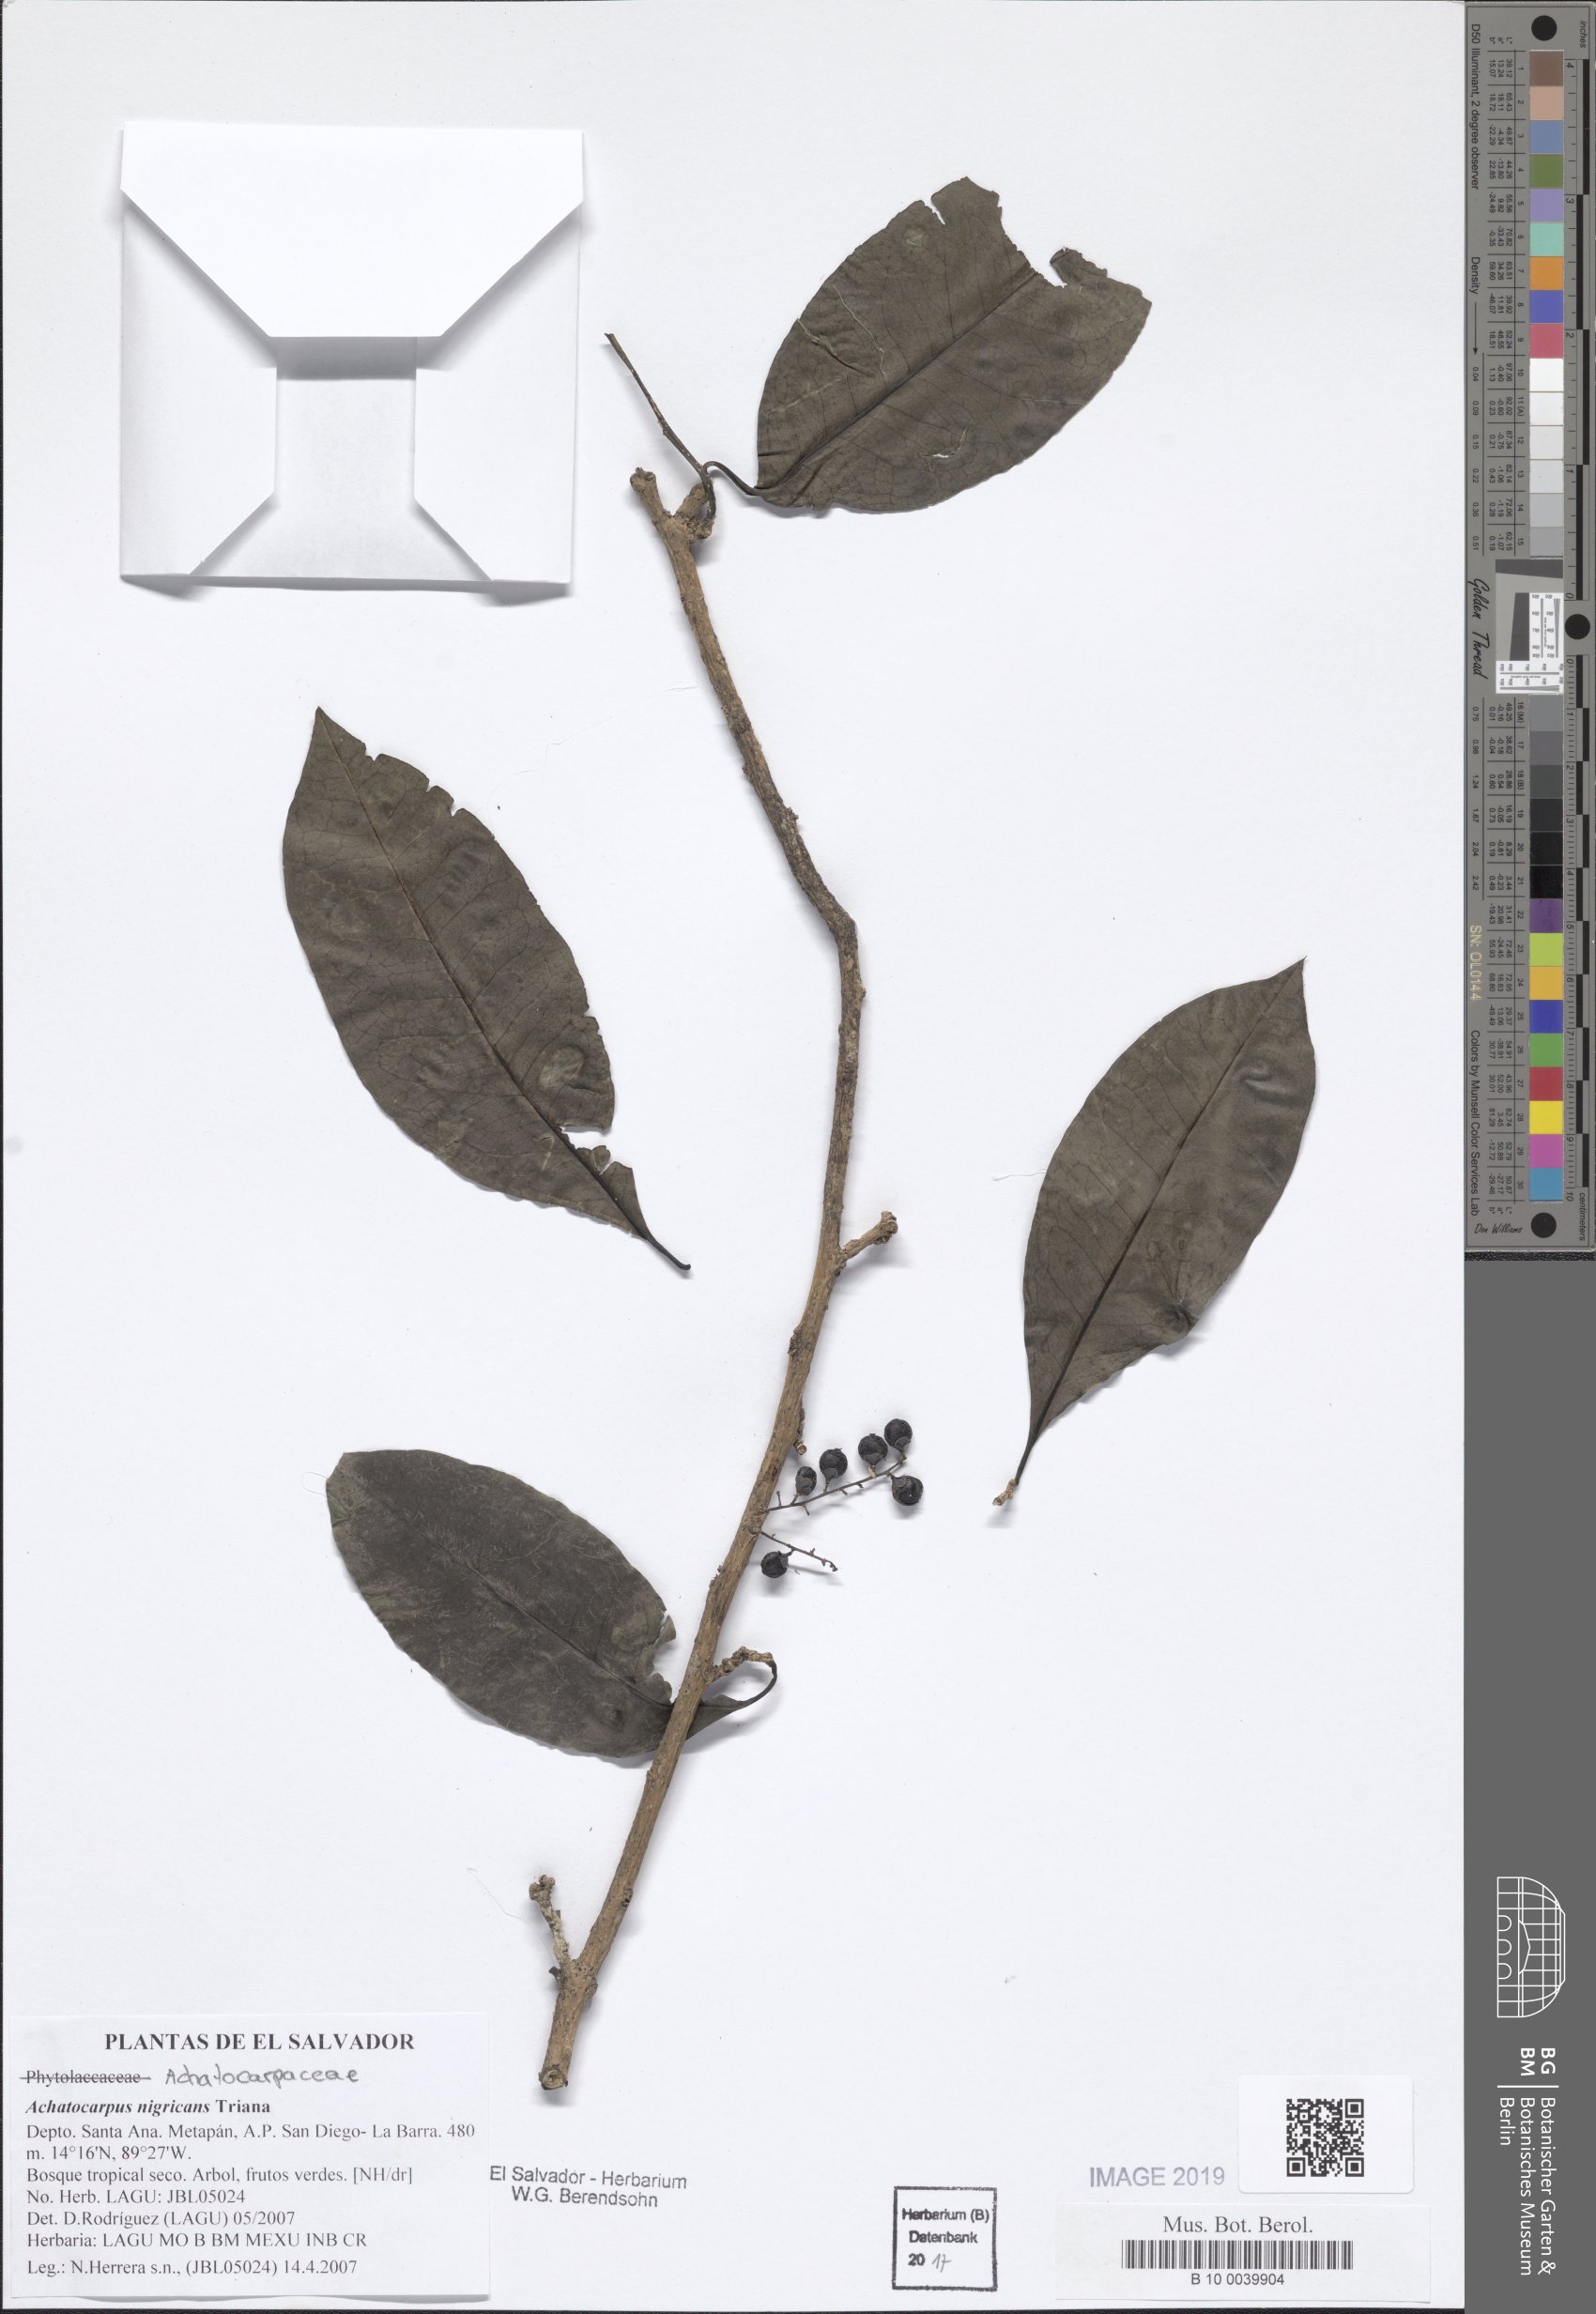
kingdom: Plantae
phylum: Tracheophyta
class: Magnoliopsida
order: Caryophyllales
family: Achatocarpaceae
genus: Achatocarpus
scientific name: Achatocarpus nigricans
